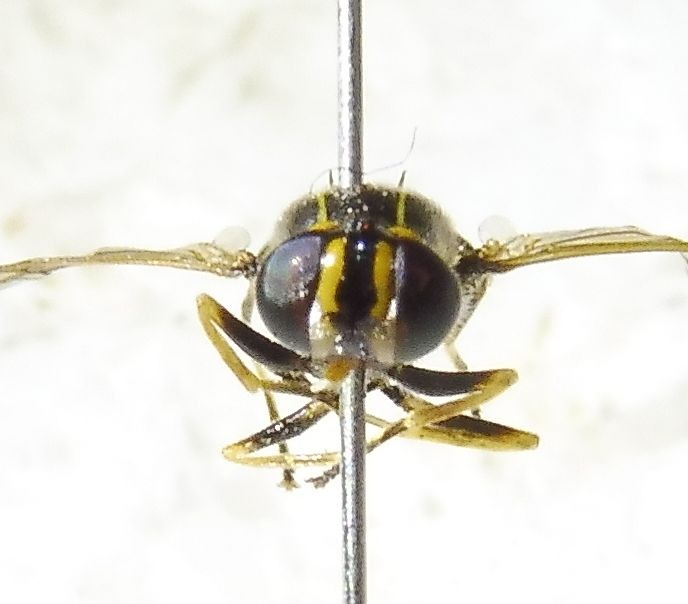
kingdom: Animalia
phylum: Arthropoda
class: Insecta
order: Diptera
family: Stratiomyidae
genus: Oxycera
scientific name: Oxycera fallenii
